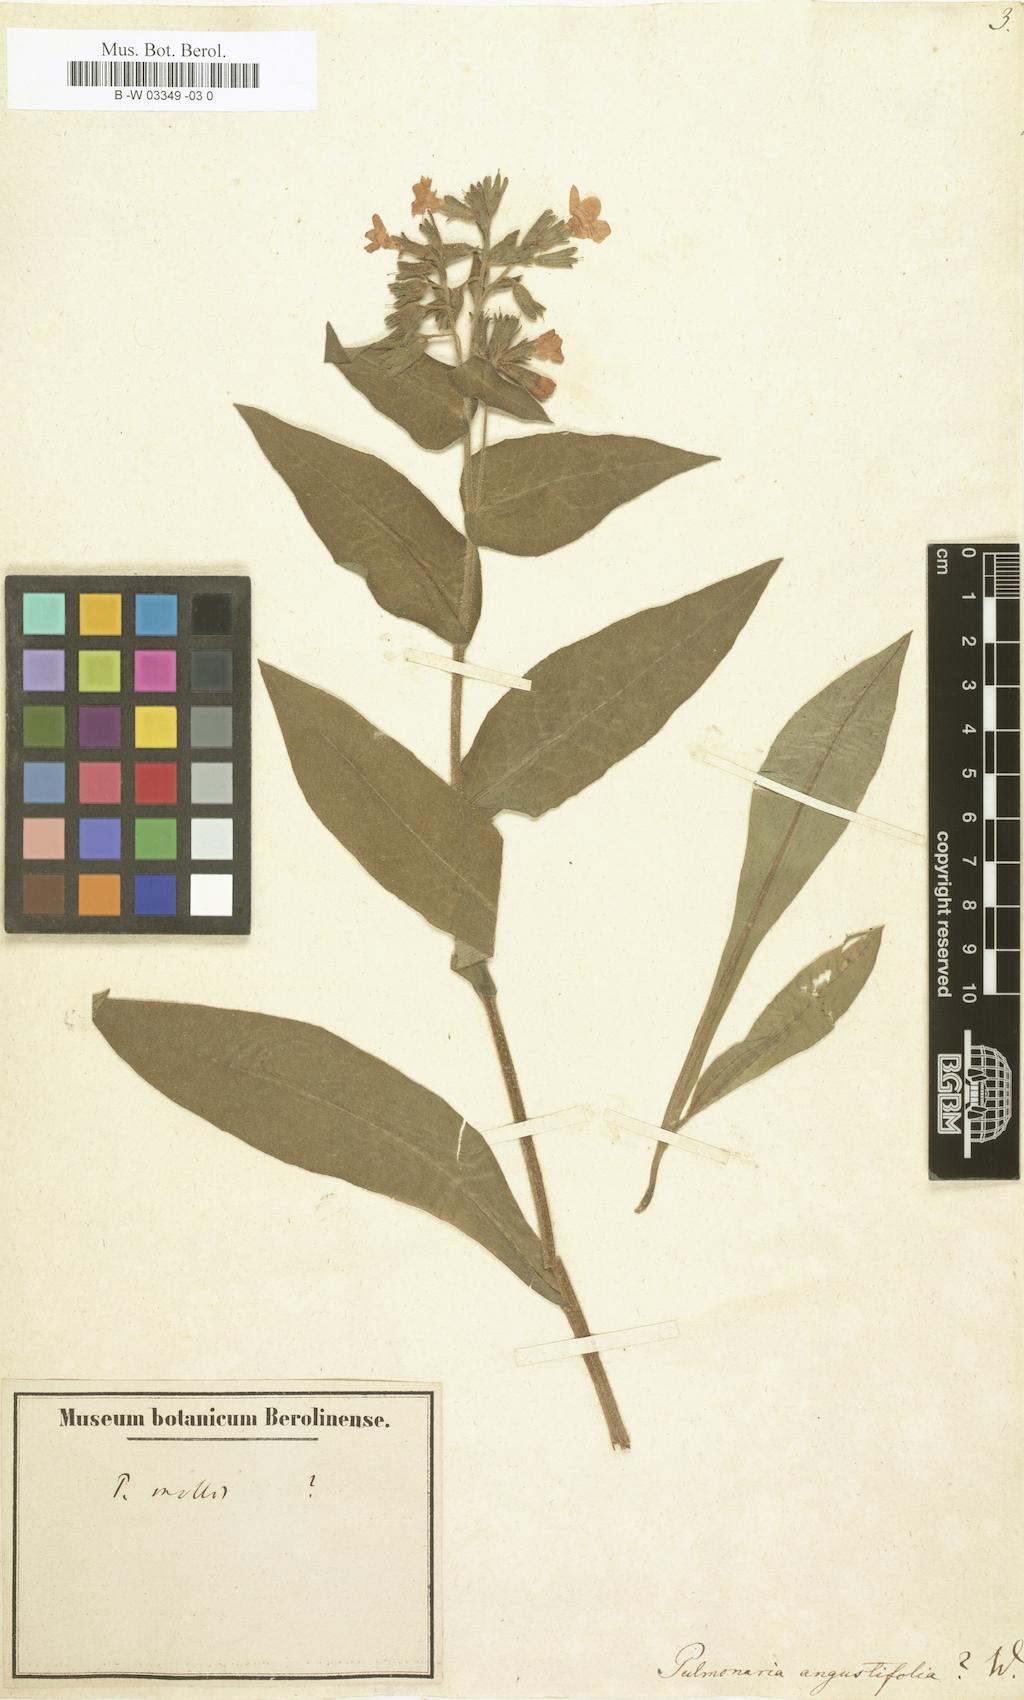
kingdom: Plantae
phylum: Tracheophyta
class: Magnoliopsida
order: Boraginales
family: Boraginaceae
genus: Pulmonaria
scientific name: Pulmonaria angustifolia
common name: Blue cowslip
